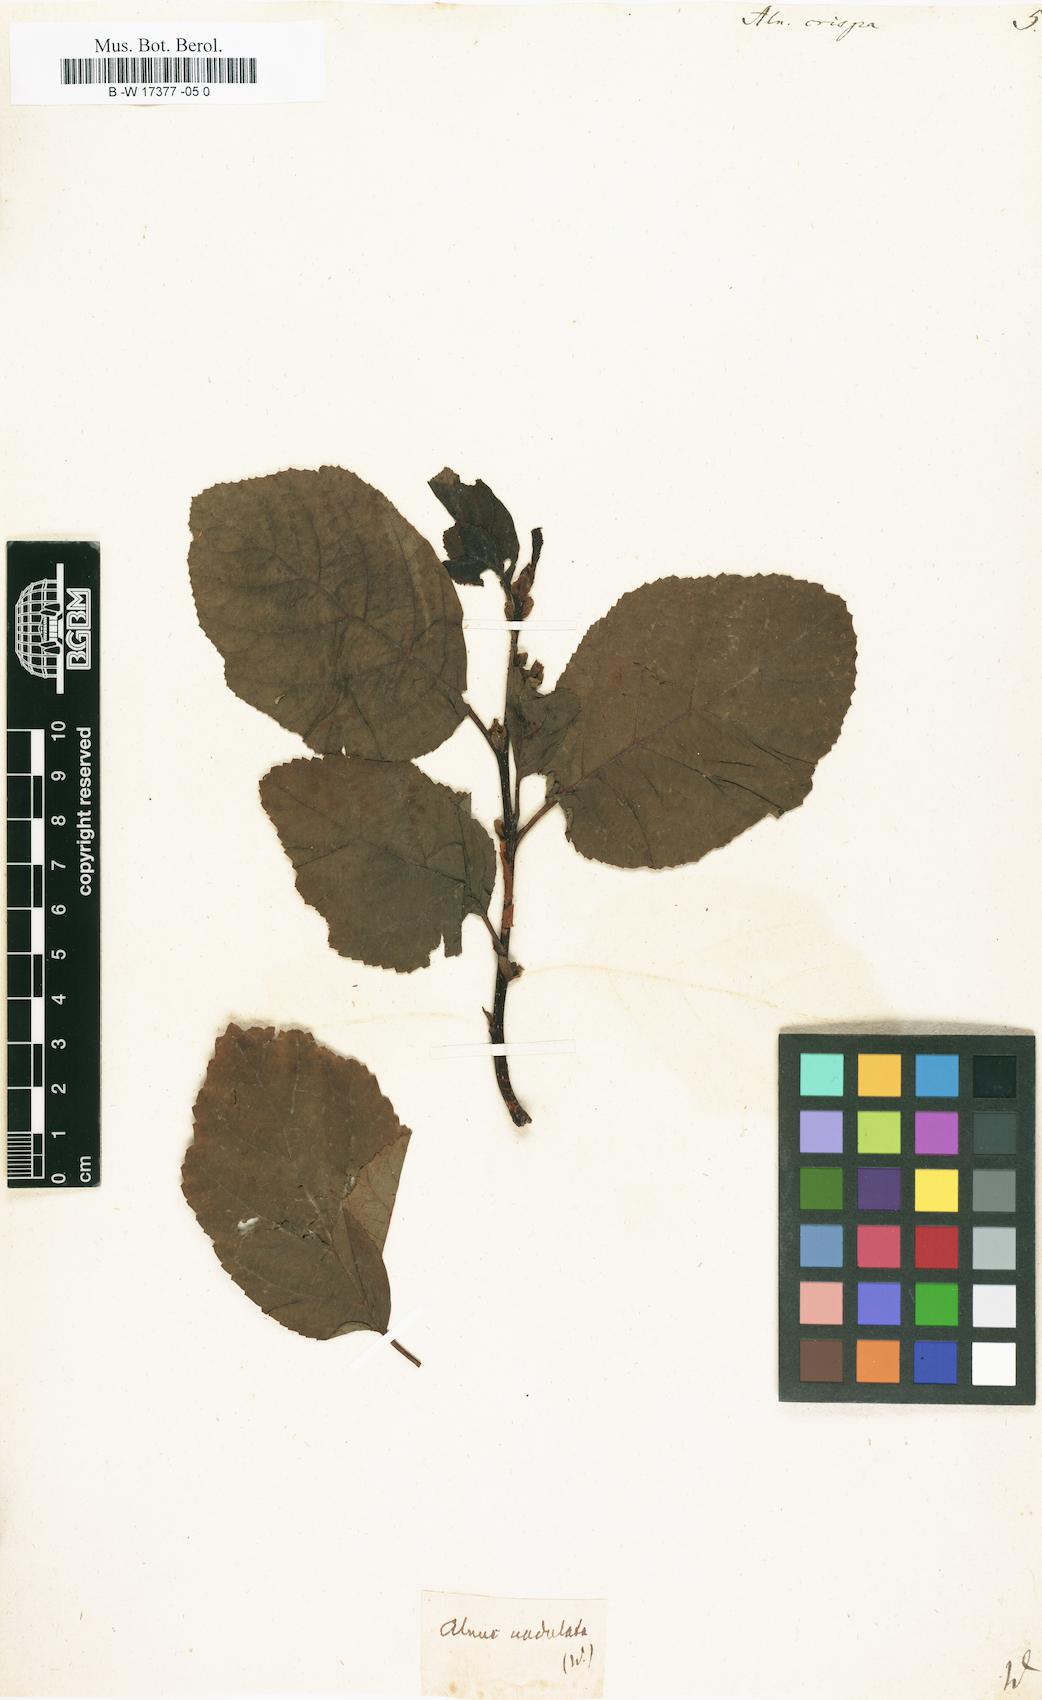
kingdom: Plantae
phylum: Tracheophyta
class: Magnoliopsida
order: Fagales
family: Betulaceae
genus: Alnus
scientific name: Alnus alnobetula
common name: Green alder
